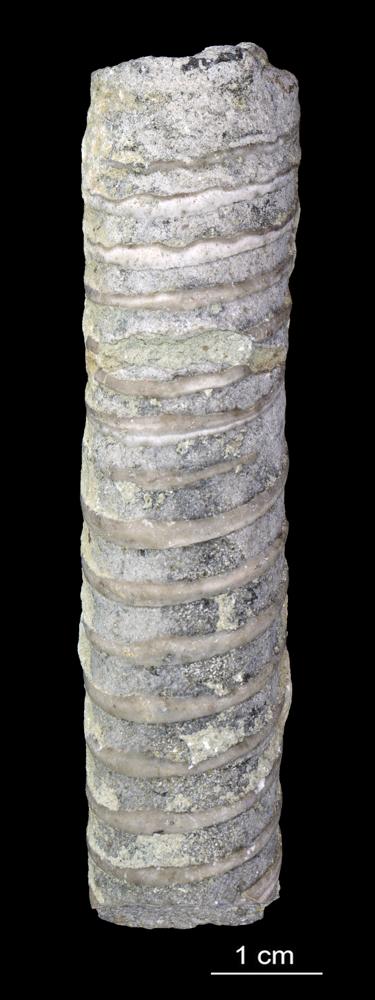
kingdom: Animalia
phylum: Mollusca
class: Cephalopoda
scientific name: Cephalopoda
